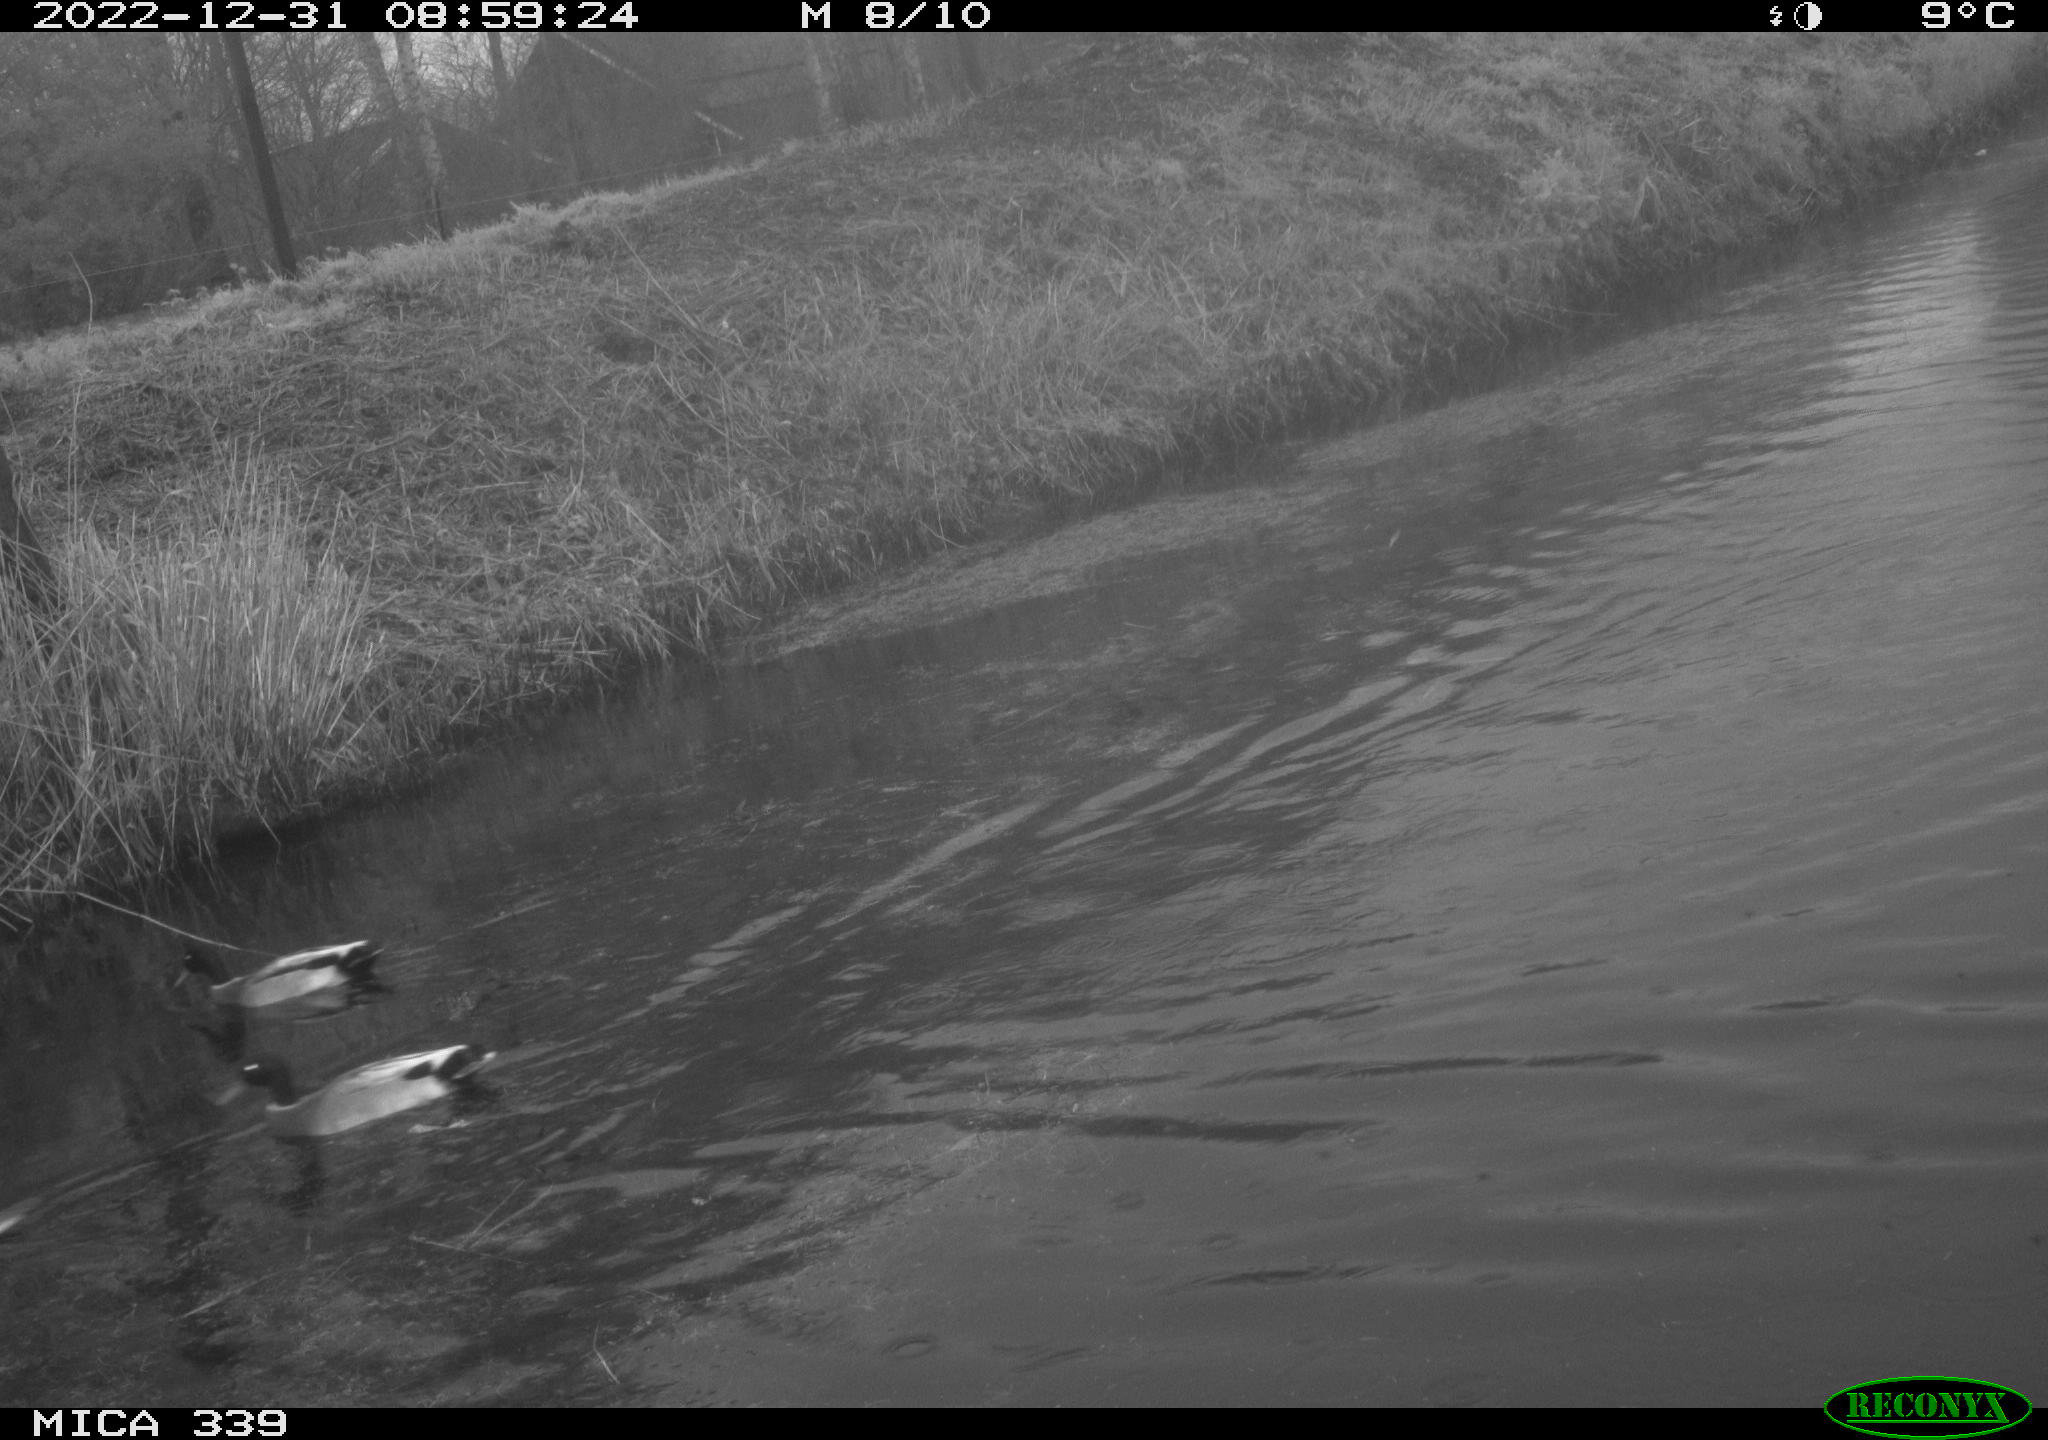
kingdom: Animalia
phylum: Chordata
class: Aves
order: Anseriformes
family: Anatidae
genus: Anas
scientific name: Anas
